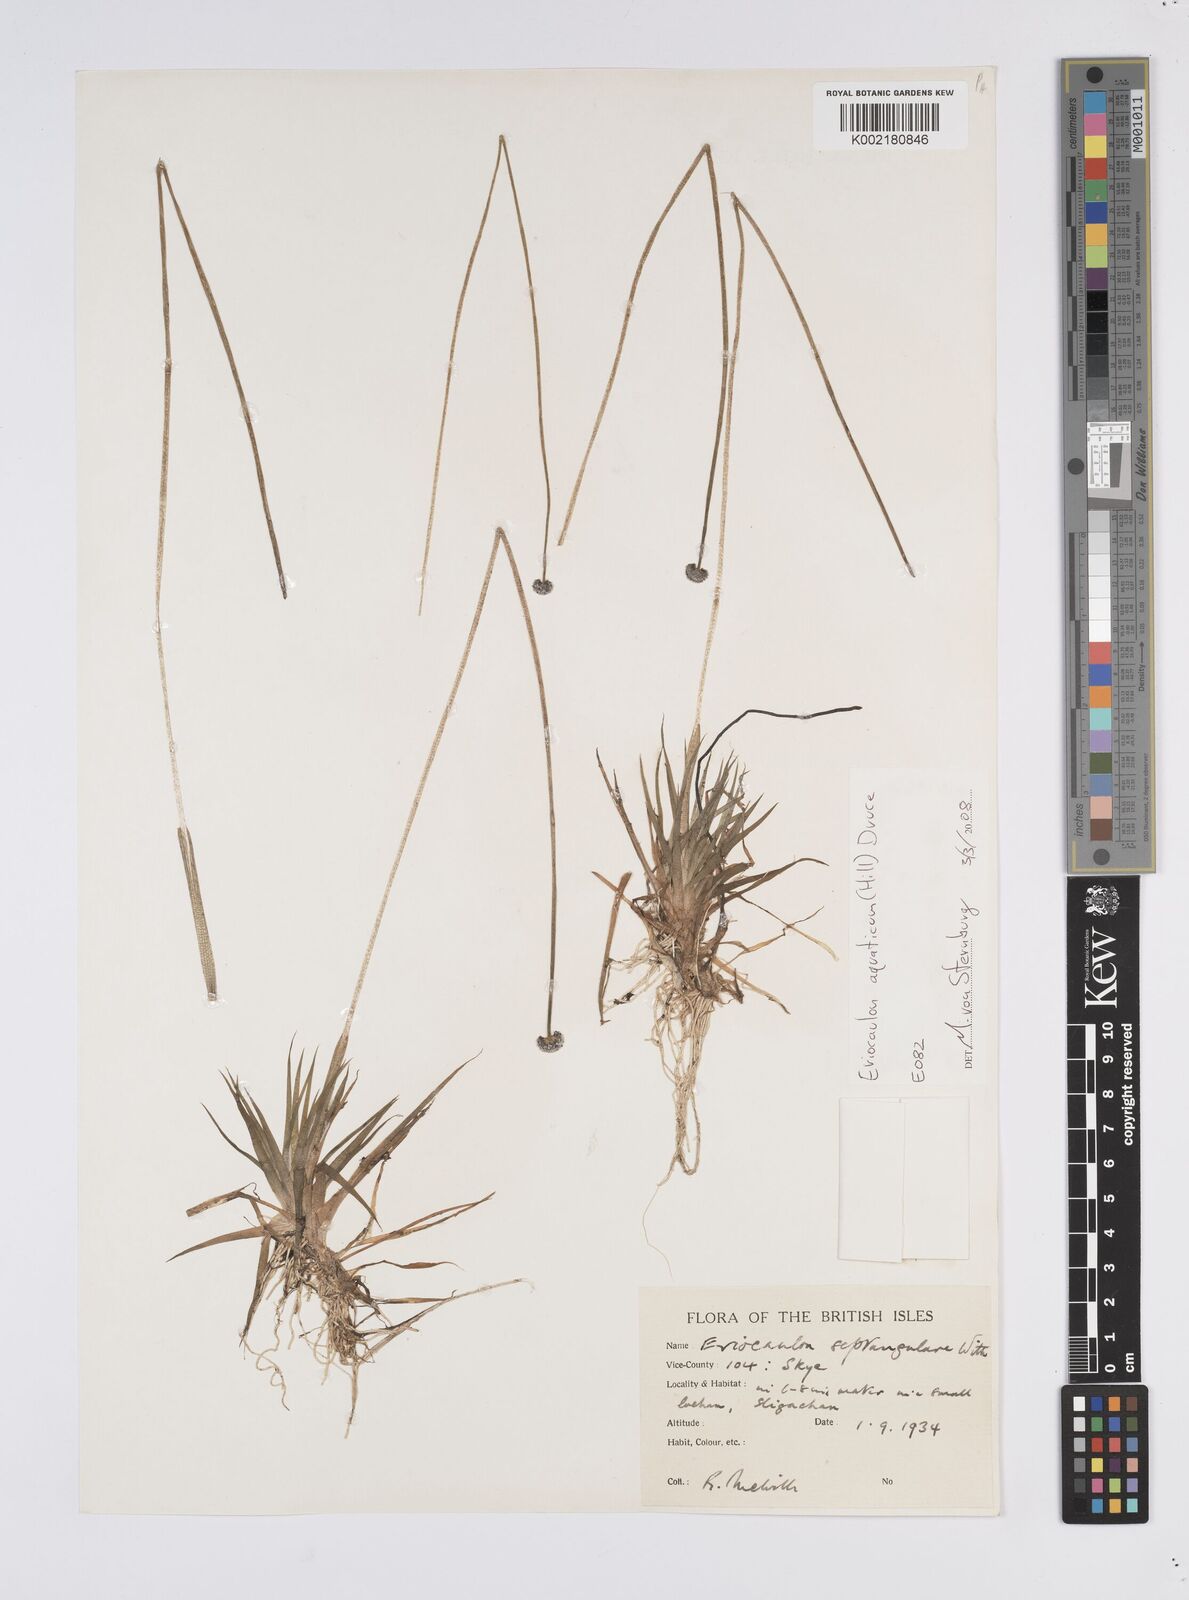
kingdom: Plantae
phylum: Tracheophyta
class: Liliopsida
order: Poales
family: Eriocaulaceae
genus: Eriocaulon
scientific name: Eriocaulon aquaticum
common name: Pipewort
